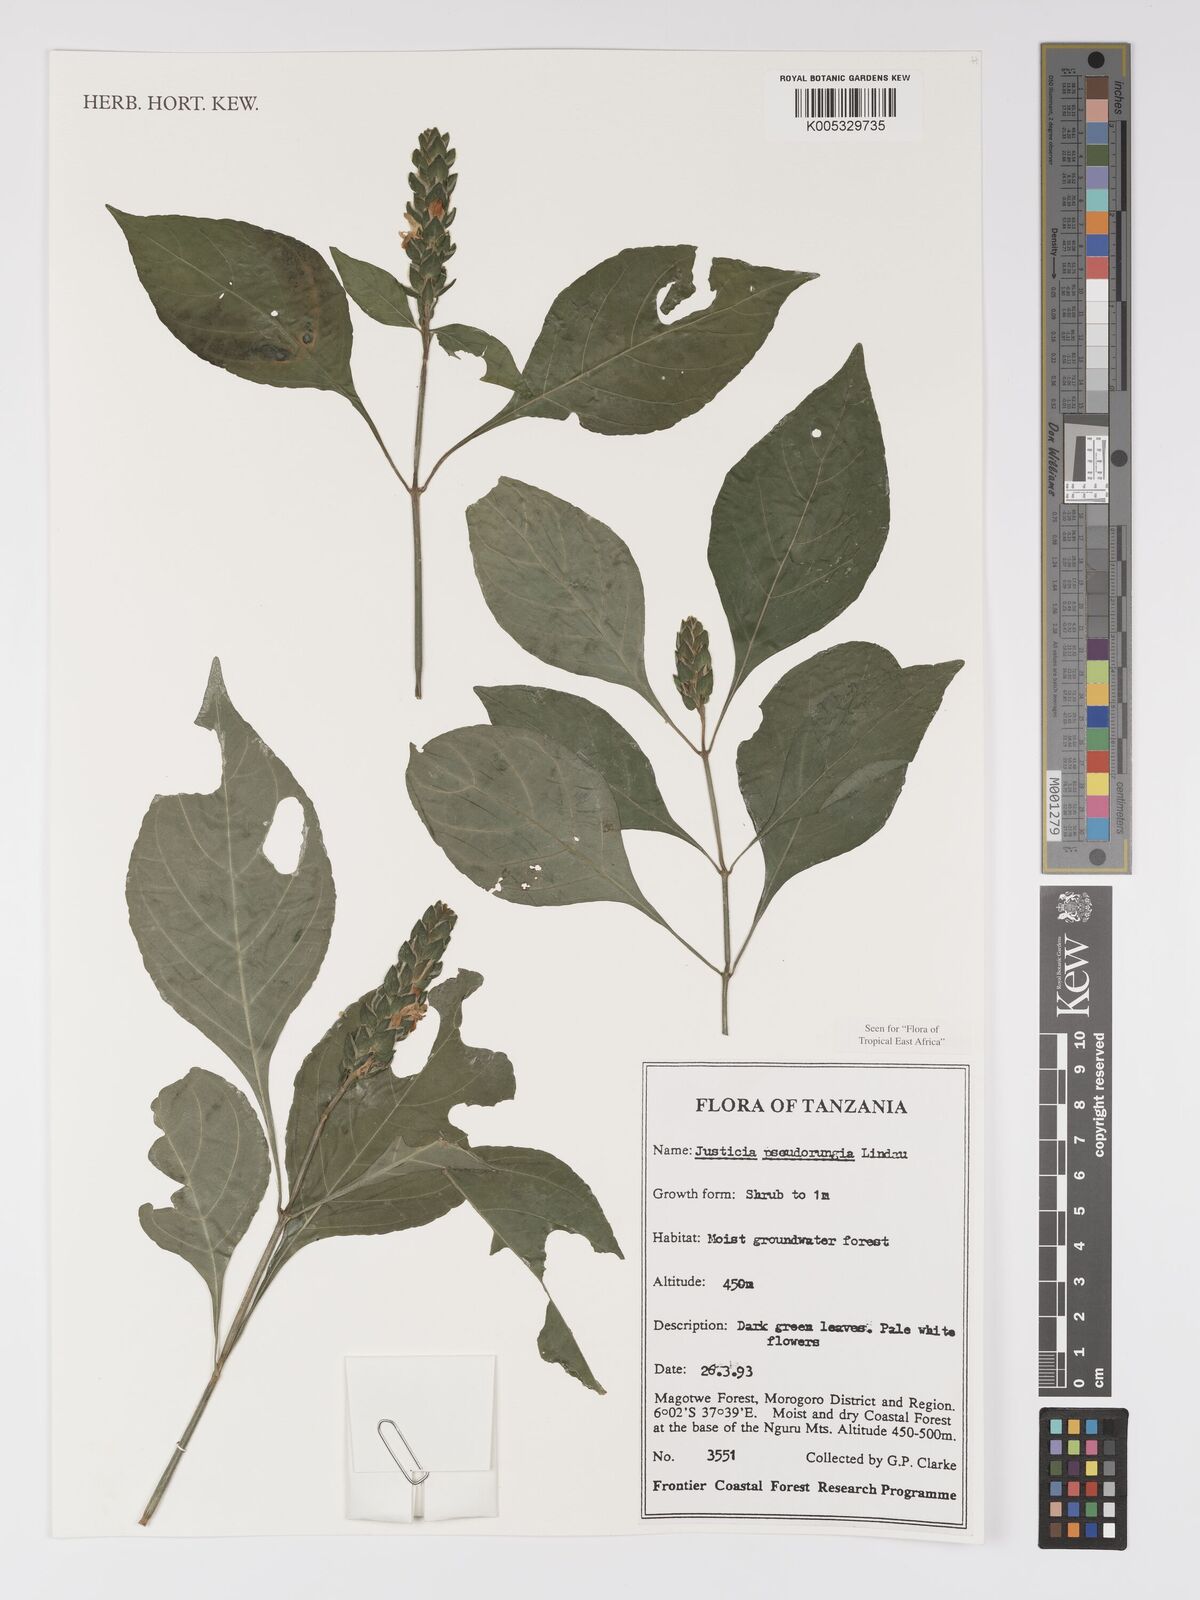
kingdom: Plantae
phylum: Tracheophyta
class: Magnoliopsida
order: Lamiales
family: Acanthaceae
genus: Justicia
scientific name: Justicia pseudorungia
